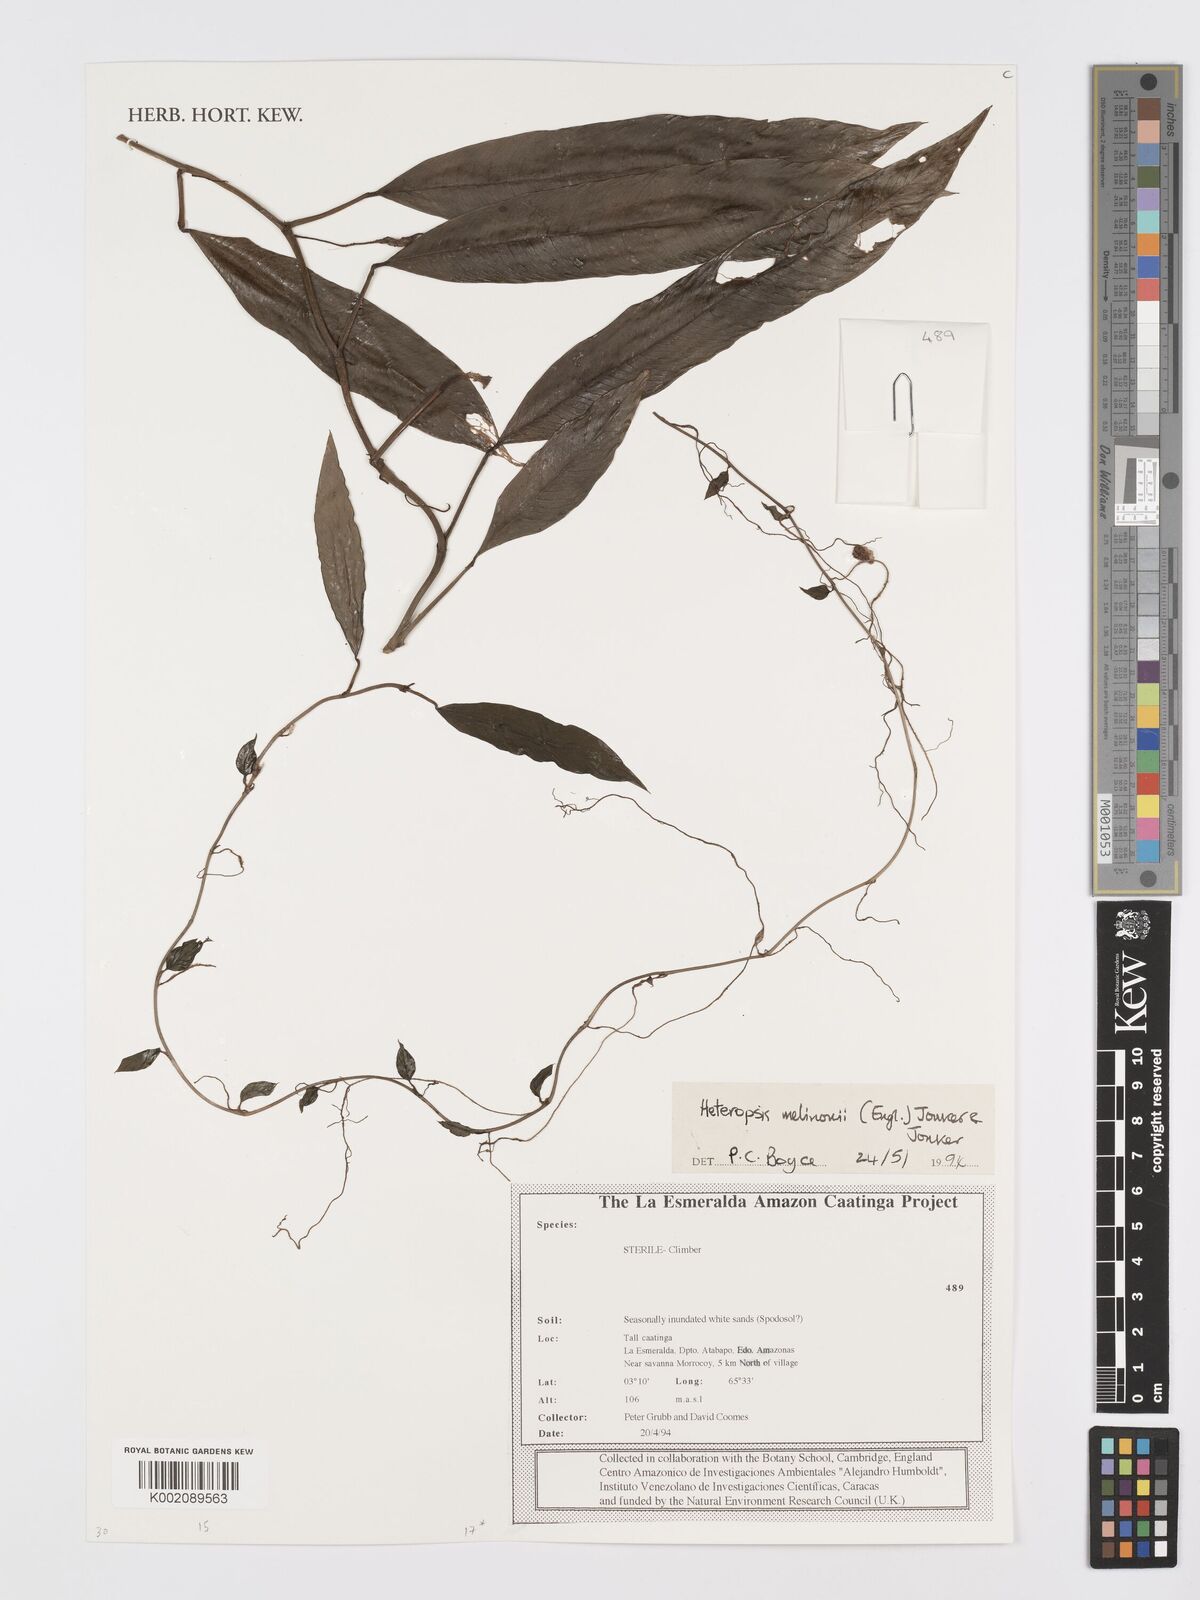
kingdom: Plantae
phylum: Tracheophyta
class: Liliopsida
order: Alismatales
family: Araceae
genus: Heteropsis
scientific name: Heteropsis melinonii
